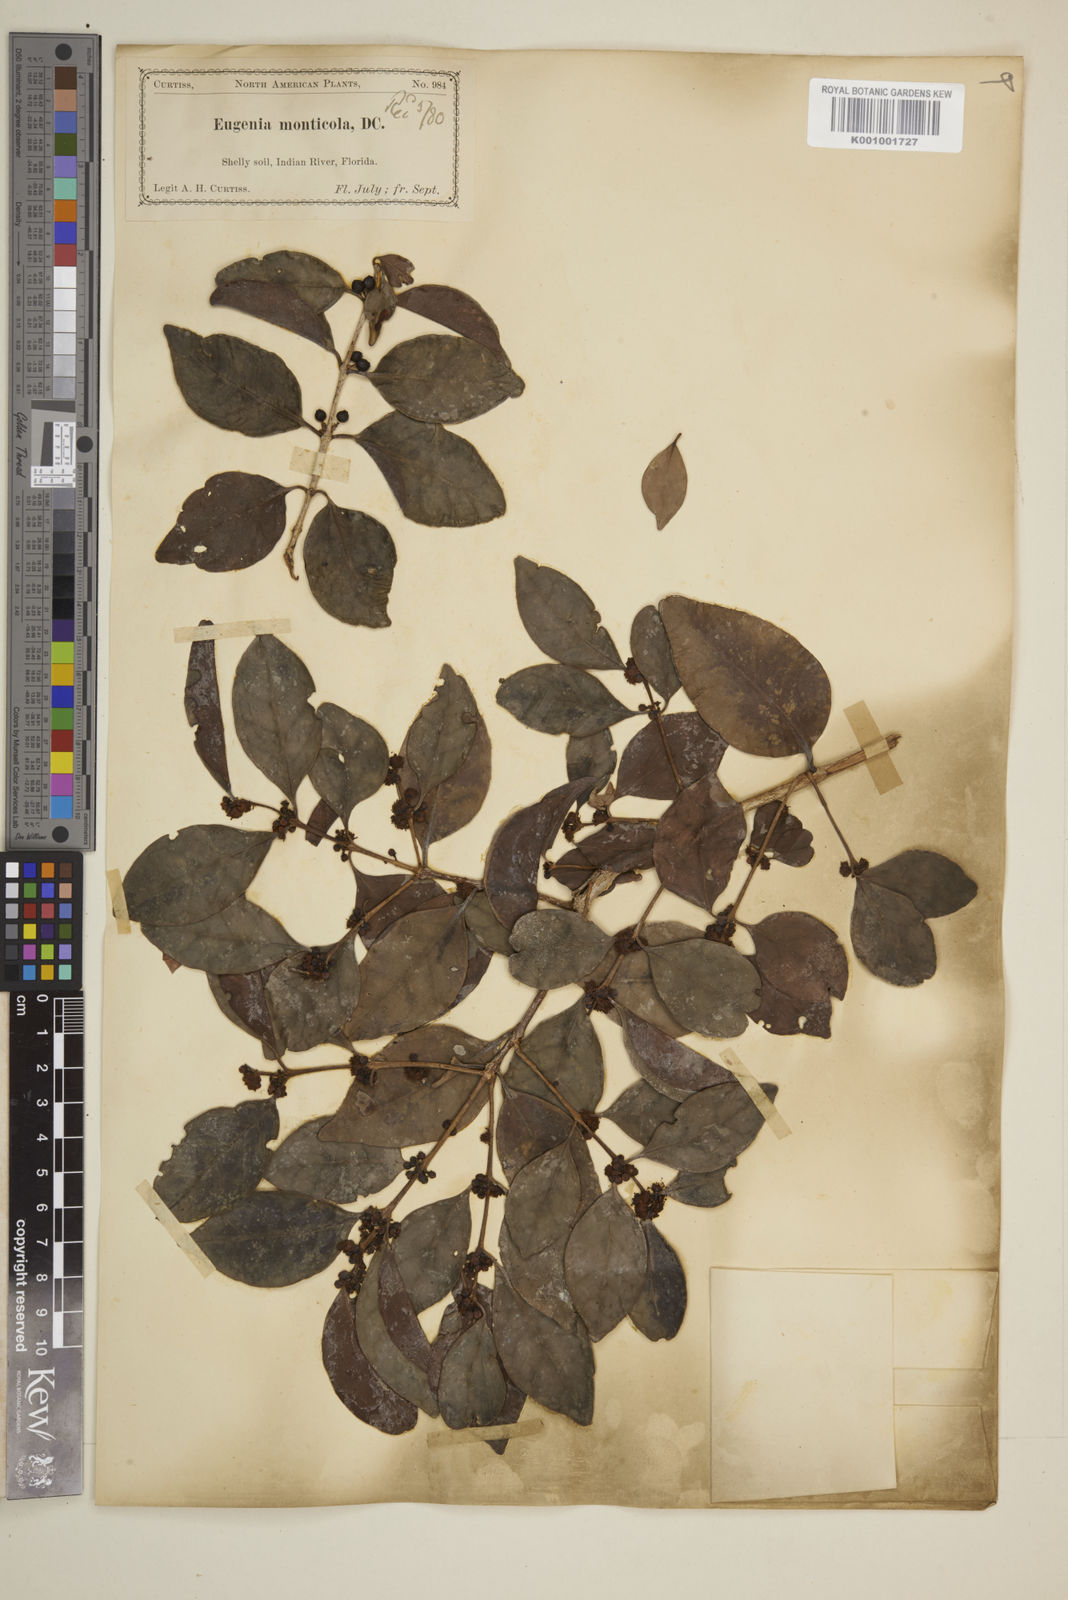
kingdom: Plantae
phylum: Tracheophyta
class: Magnoliopsida
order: Myrtales
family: Myrtaceae
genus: Eugenia
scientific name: Eugenia monticola
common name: Birds berry
